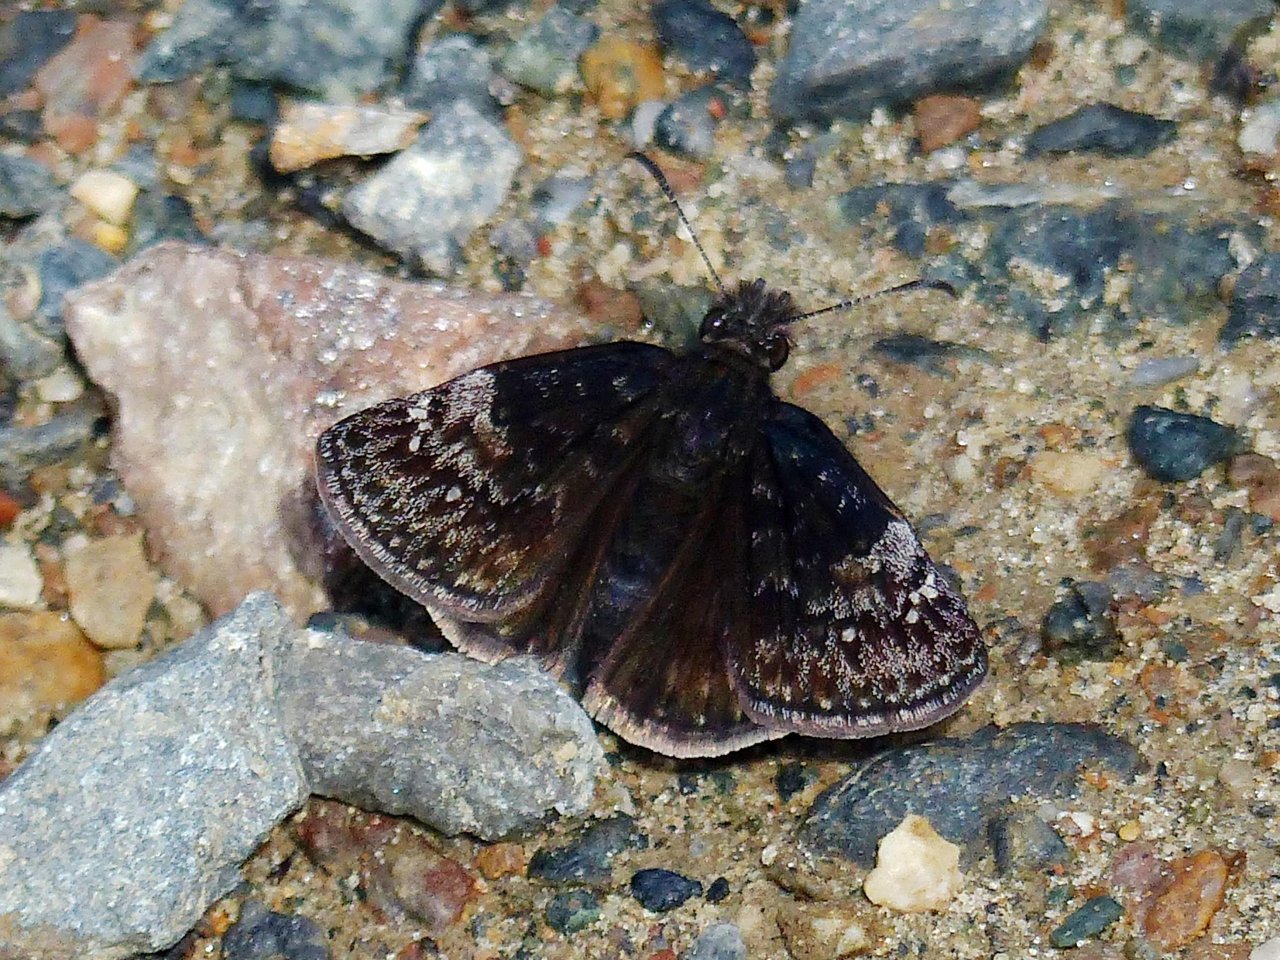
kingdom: Animalia
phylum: Arthropoda
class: Insecta
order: Lepidoptera
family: Hesperiidae
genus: Gesta
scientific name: Gesta
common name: Columbine Duskywing
